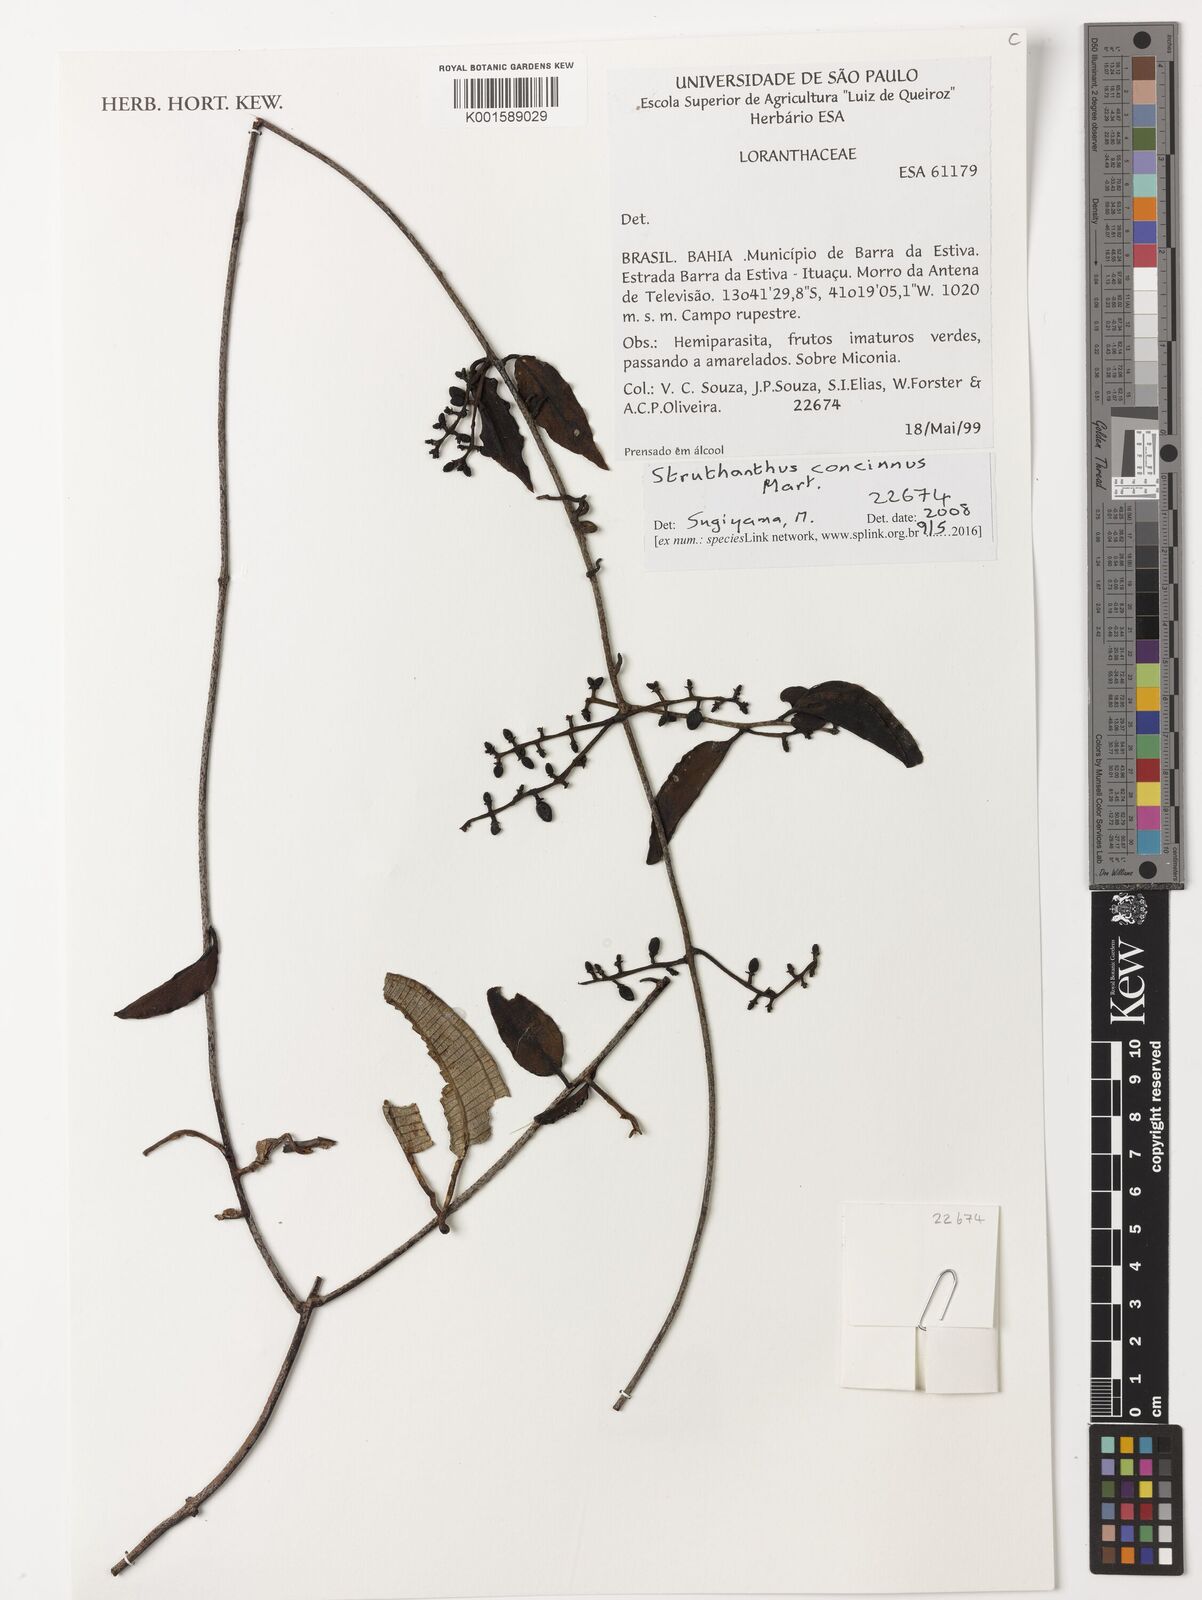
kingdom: Plantae
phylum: Tracheophyta
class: Magnoliopsida
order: Santalales
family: Loranthaceae
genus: Struthanthus
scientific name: Struthanthus concinnus
